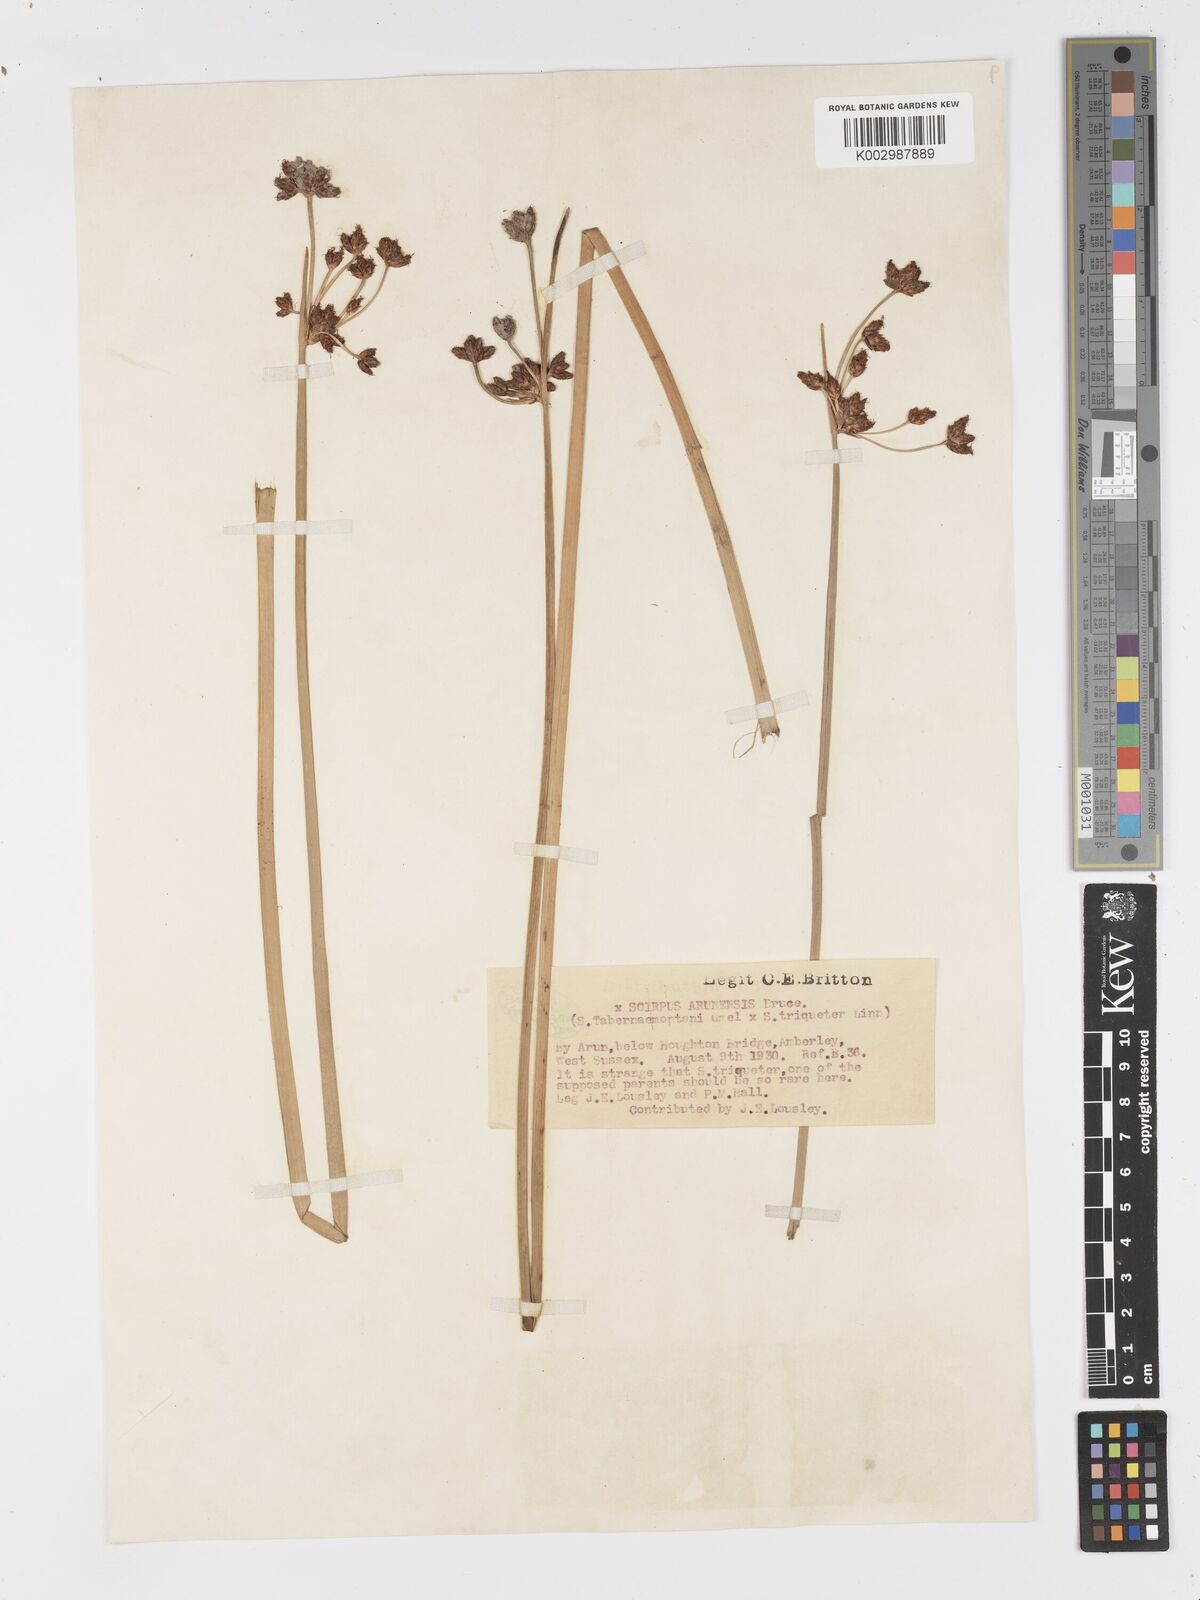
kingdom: Plantae
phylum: Tracheophyta
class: Liliopsida
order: Poales
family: Cyperaceae
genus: Schoenoplectus
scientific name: Schoenoplectus tabernaemontani
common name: Grey club-rush
